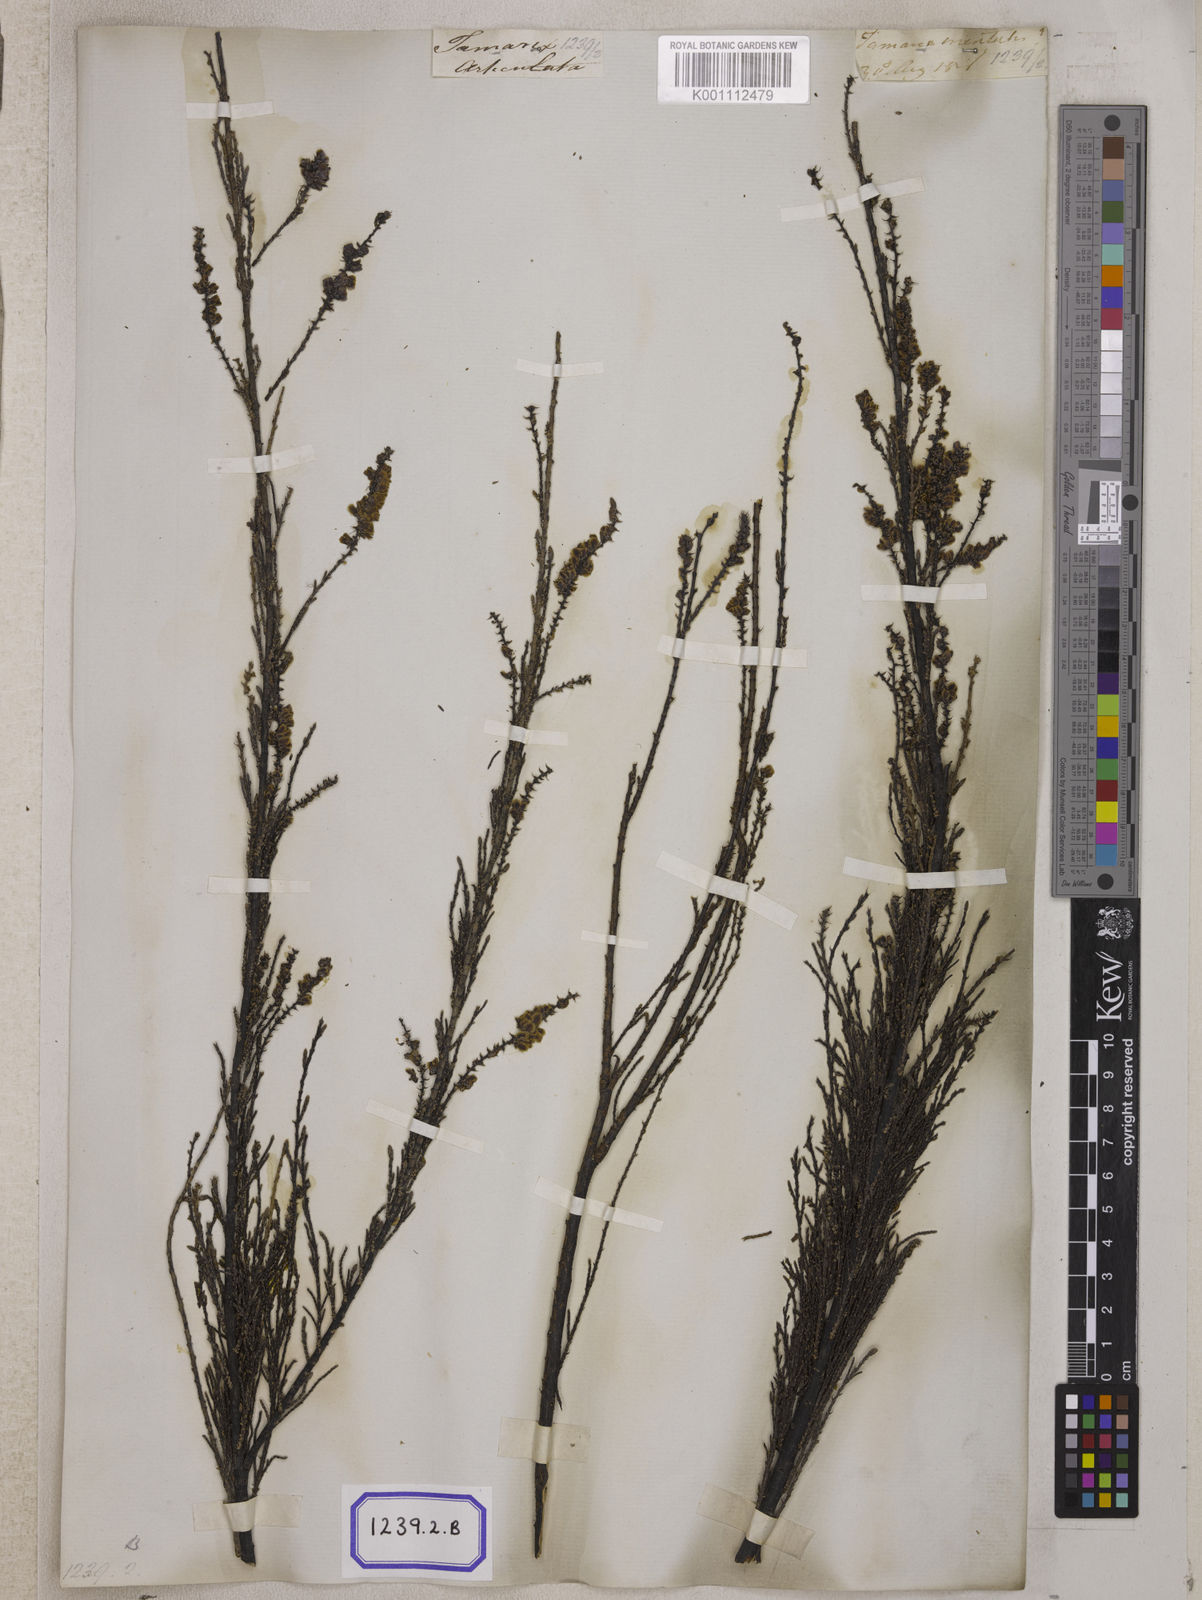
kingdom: Plantae
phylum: Tracheophyta
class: Magnoliopsida
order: Caryophyllales
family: Tamaricaceae
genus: Tamarix
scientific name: Tamarix ericoides
